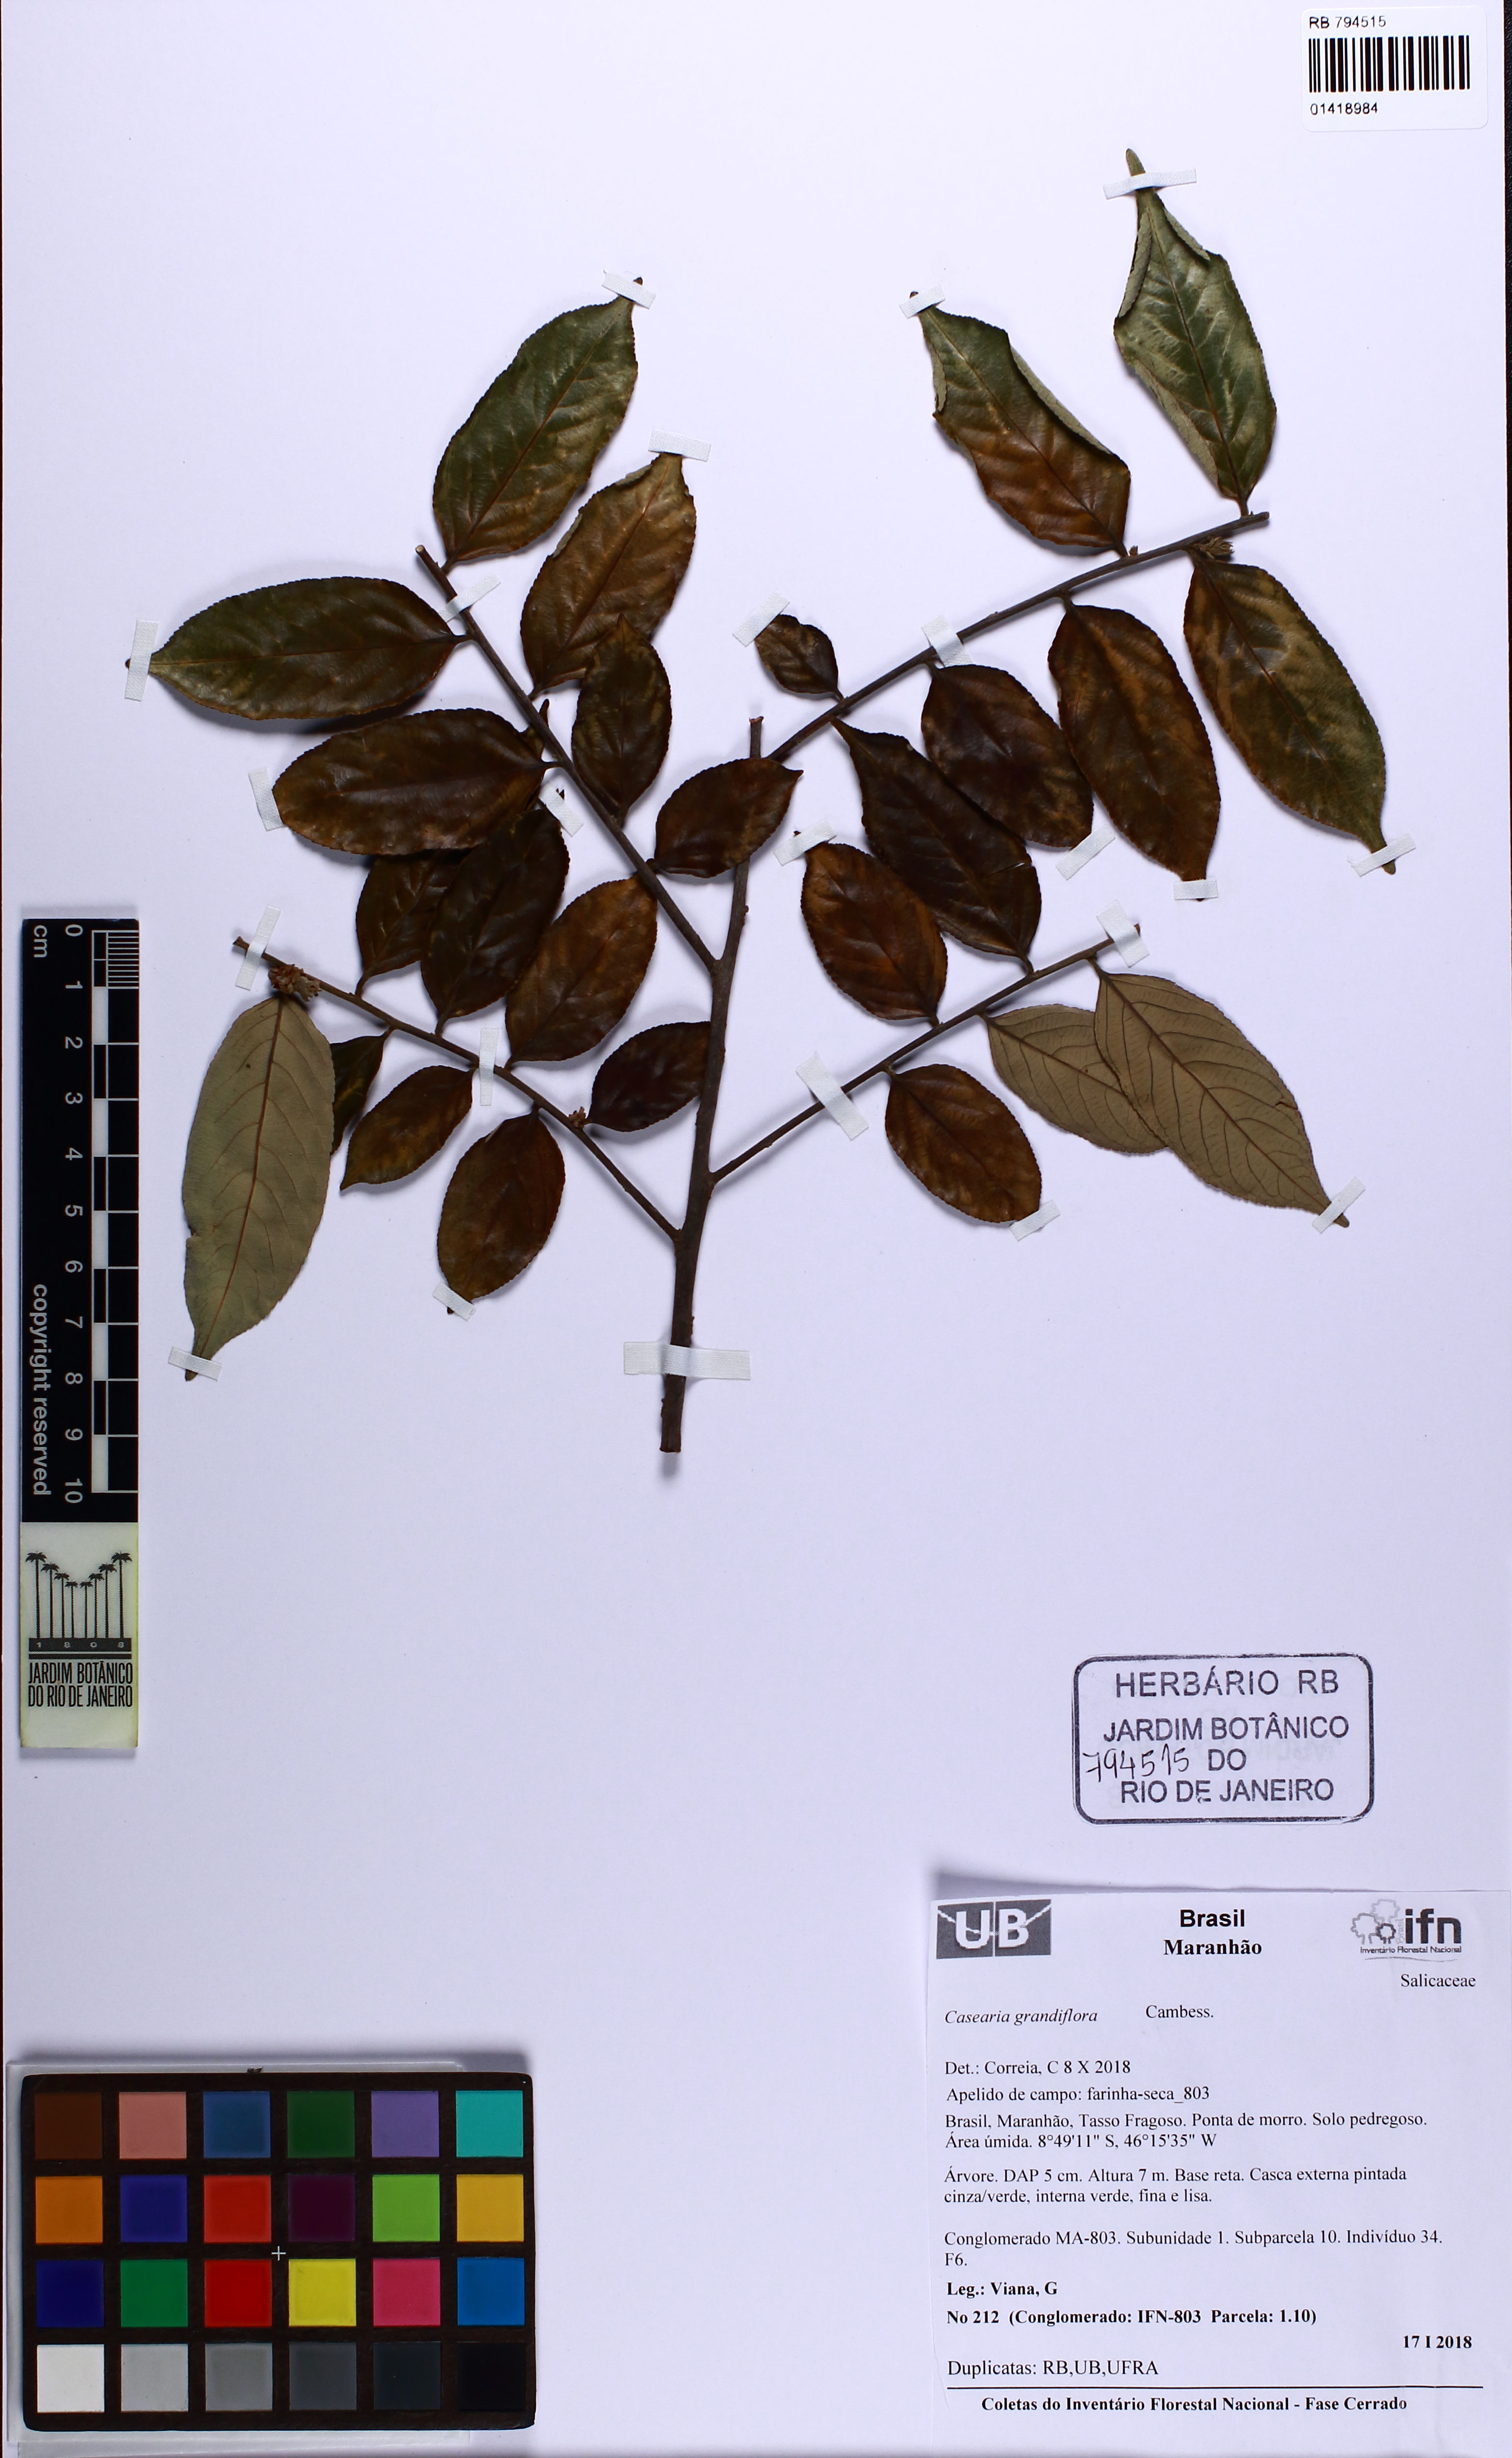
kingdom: Plantae
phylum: Tracheophyta
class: Magnoliopsida
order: Malpighiales
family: Salicaceae
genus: Casearia
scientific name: Casearia grandiflora
